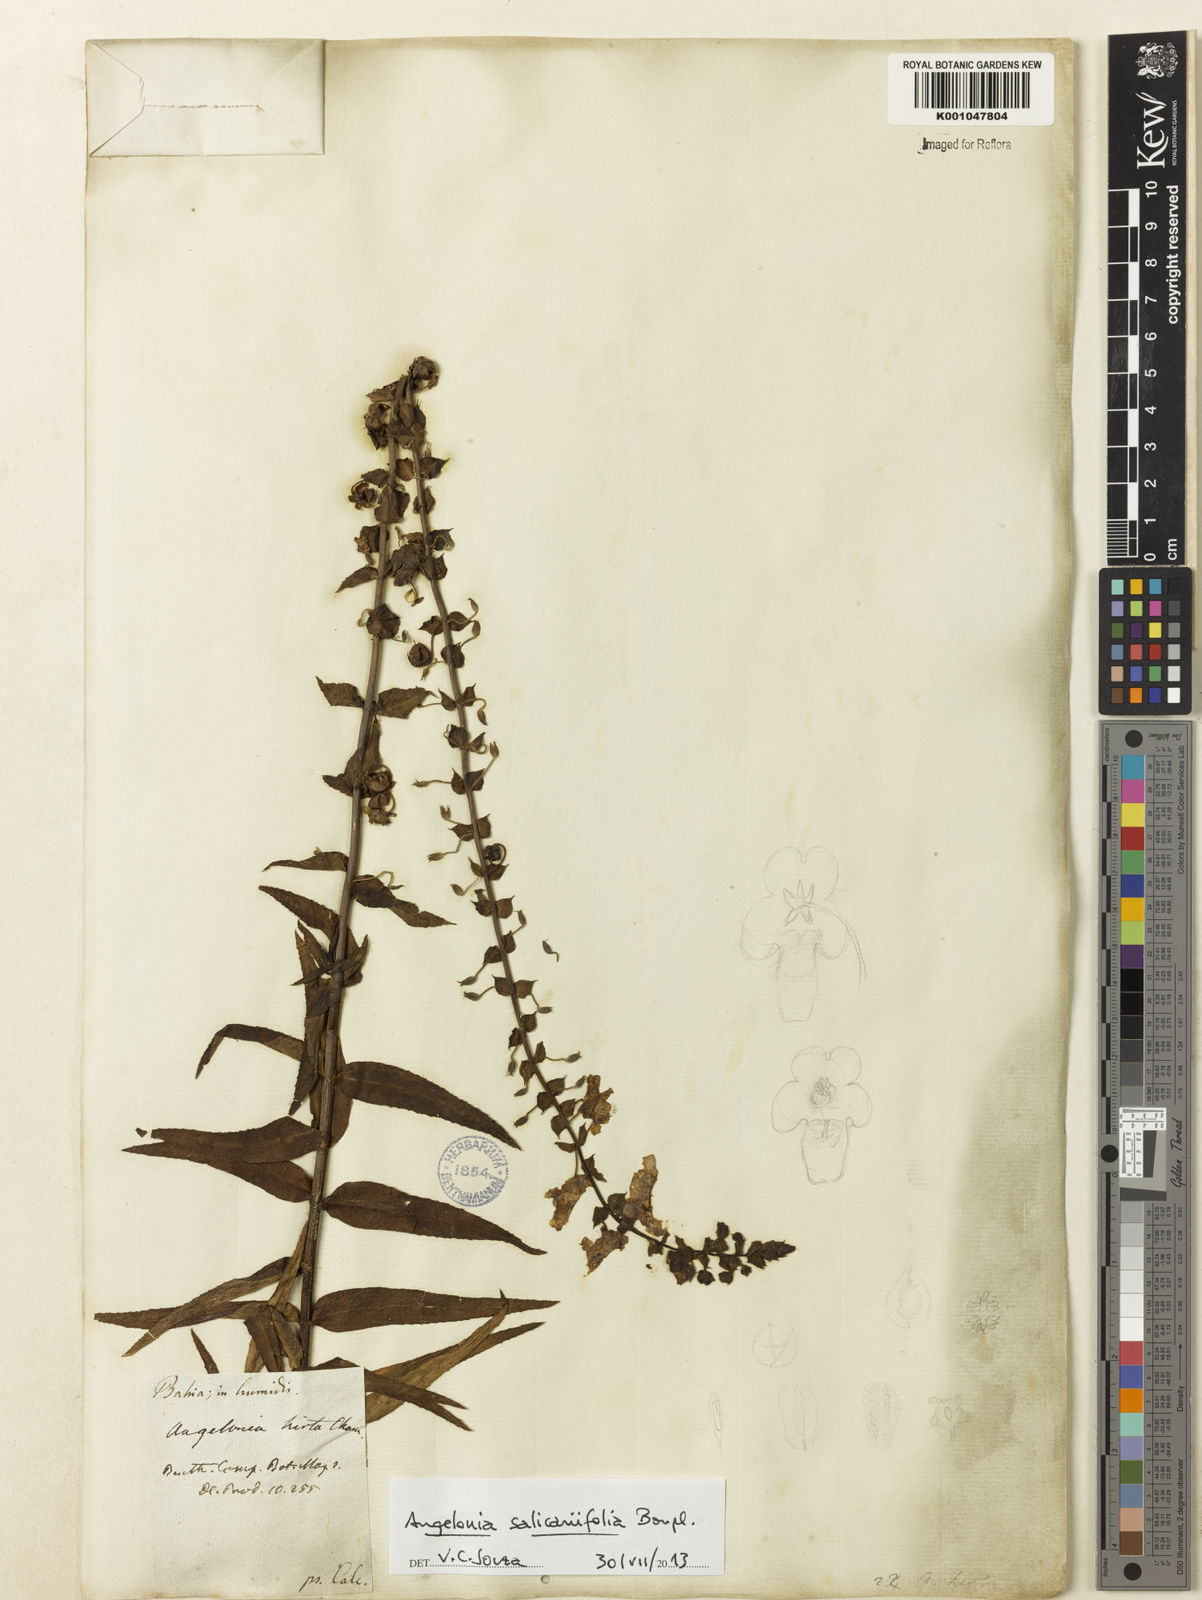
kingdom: Plantae
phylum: Tracheophyta
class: Magnoliopsida
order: Lamiales
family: Plantaginaceae
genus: Angelonia
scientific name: Angelonia salicariifolia
